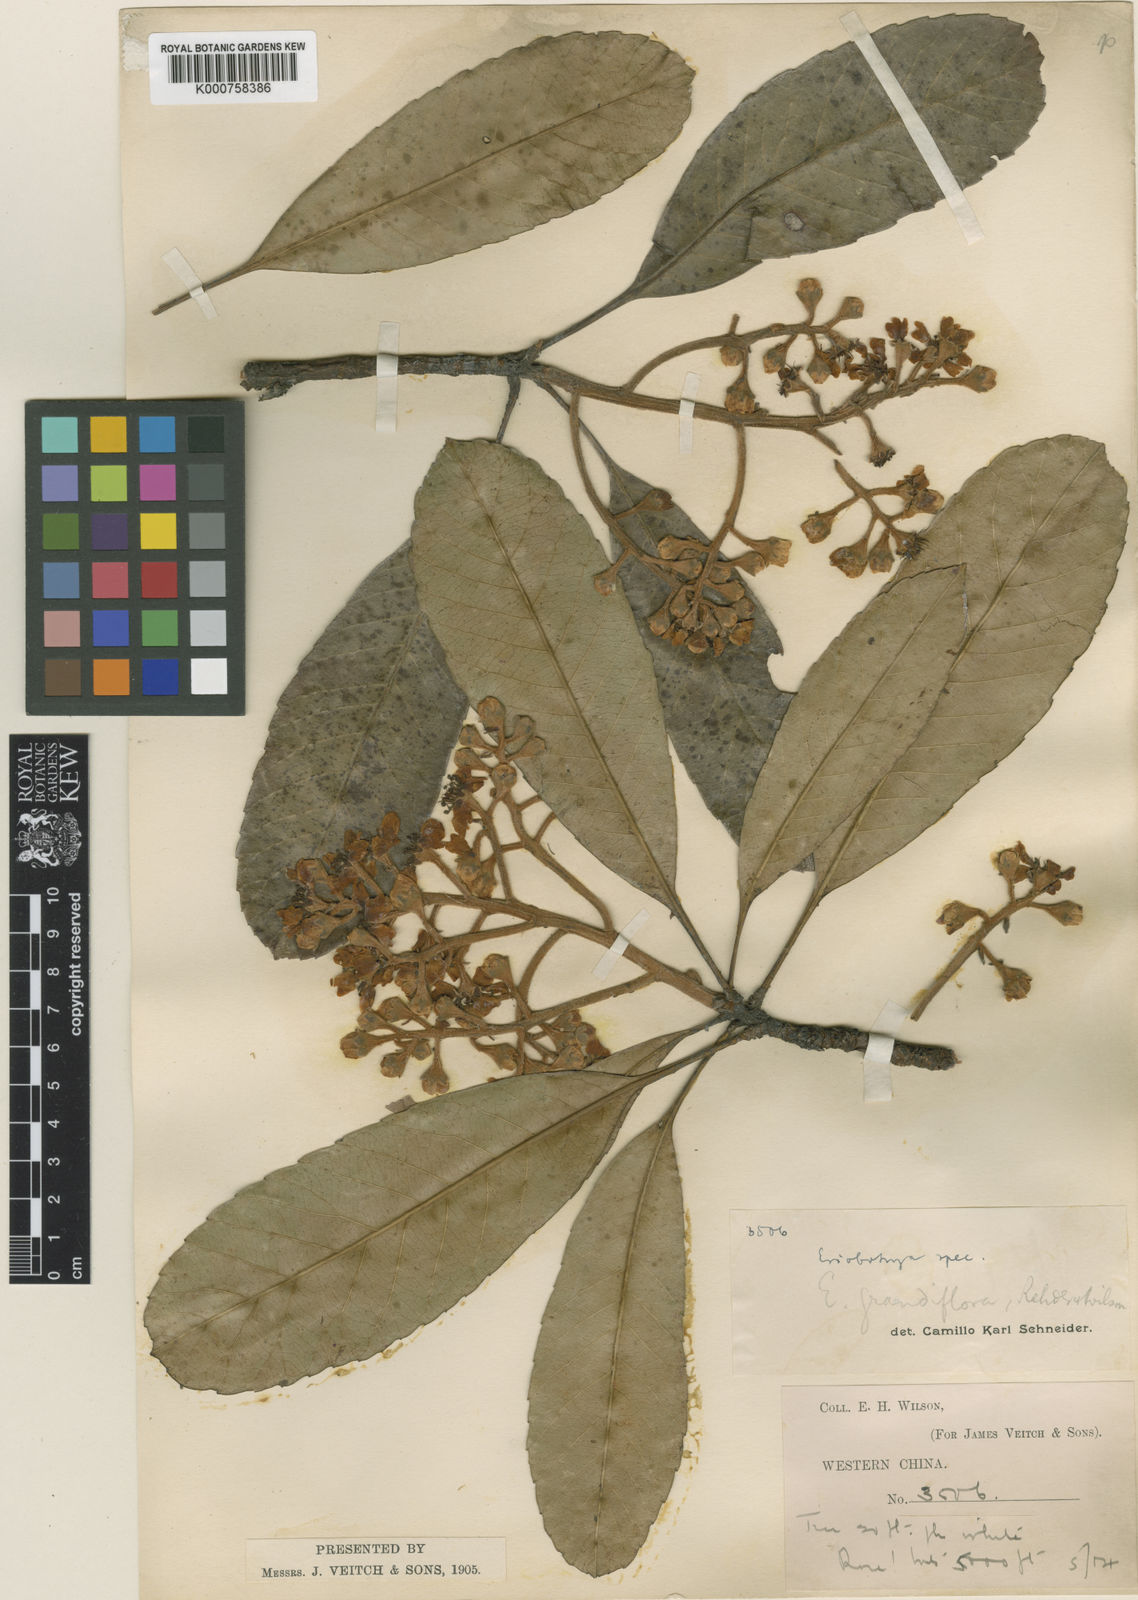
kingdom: Plantae
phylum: Tracheophyta
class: Magnoliopsida
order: Rosales
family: Rosaceae
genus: Rhaphiolepis
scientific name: Rhaphiolepis cavaleriei
